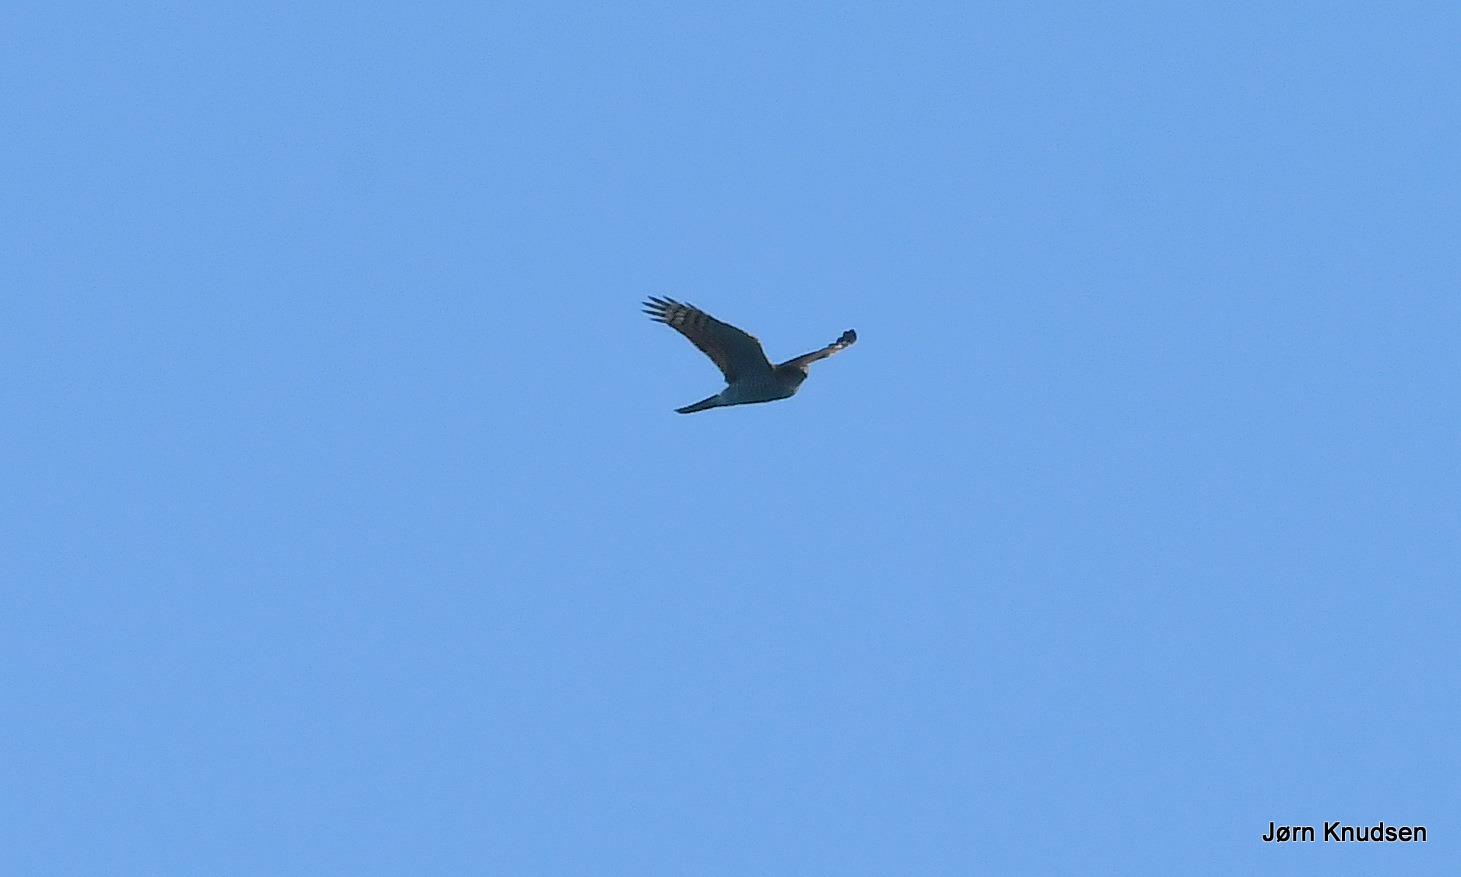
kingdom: Animalia
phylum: Chordata
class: Aves
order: Accipitriformes
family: Accipitridae
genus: Accipiter
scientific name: Accipiter nisus
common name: Spurvehøg
